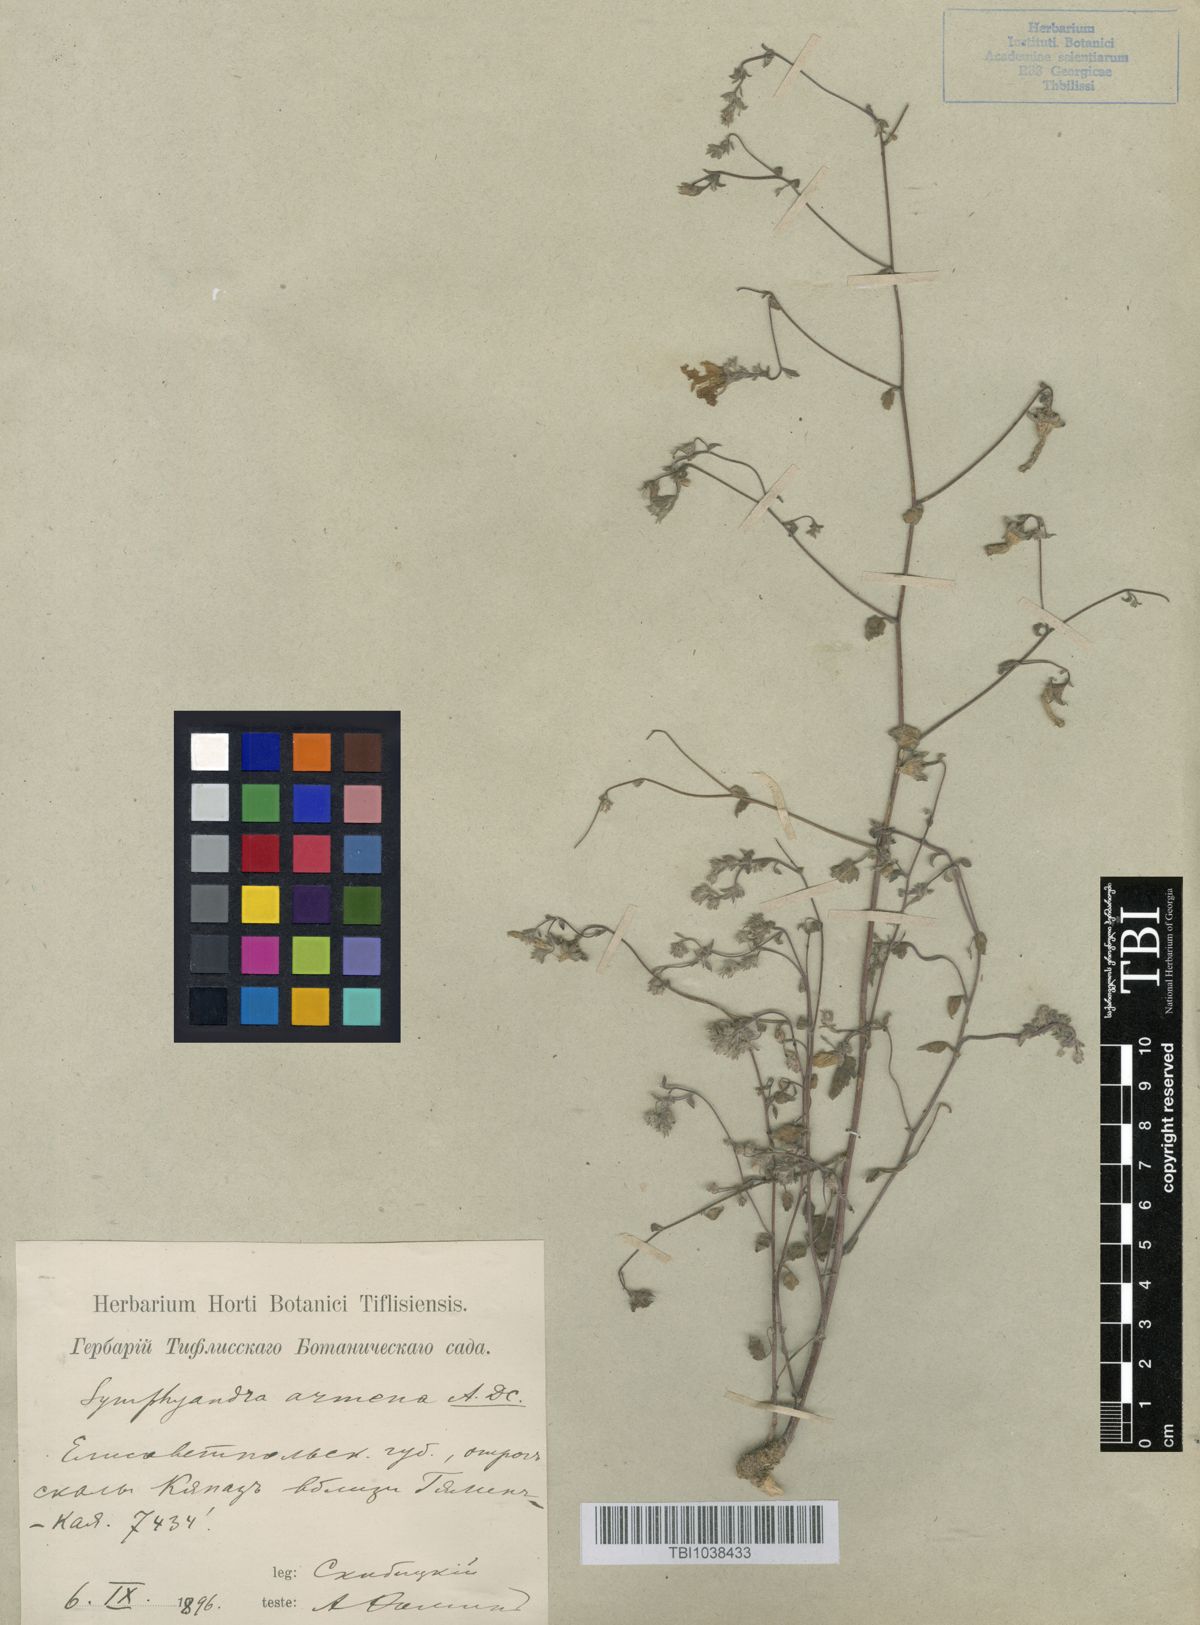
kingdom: Plantae
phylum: Tracheophyta
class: Magnoliopsida
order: Asterales
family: Campanulaceae
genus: Campanula
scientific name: Campanula armena
